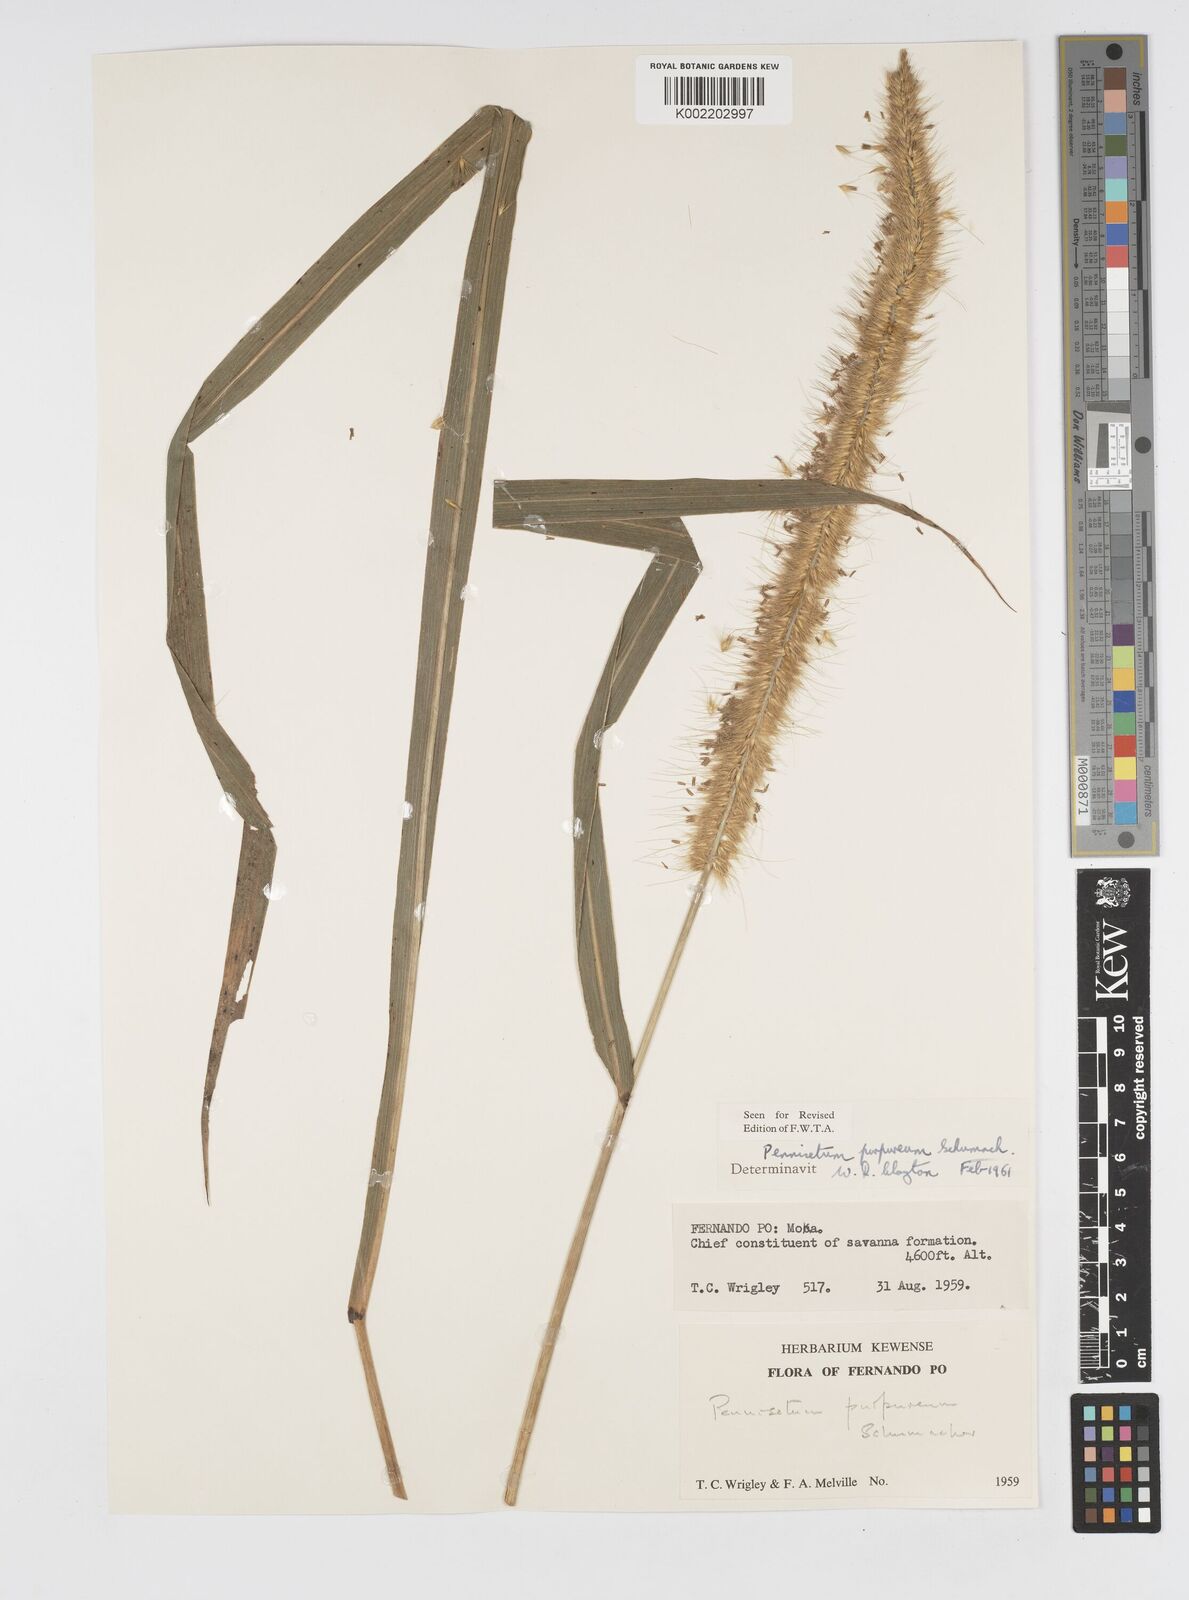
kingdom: Plantae
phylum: Tracheophyta
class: Liliopsida
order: Poales
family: Poaceae
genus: Cenchrus
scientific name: Cenchrus purpureus
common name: Elephant grass
